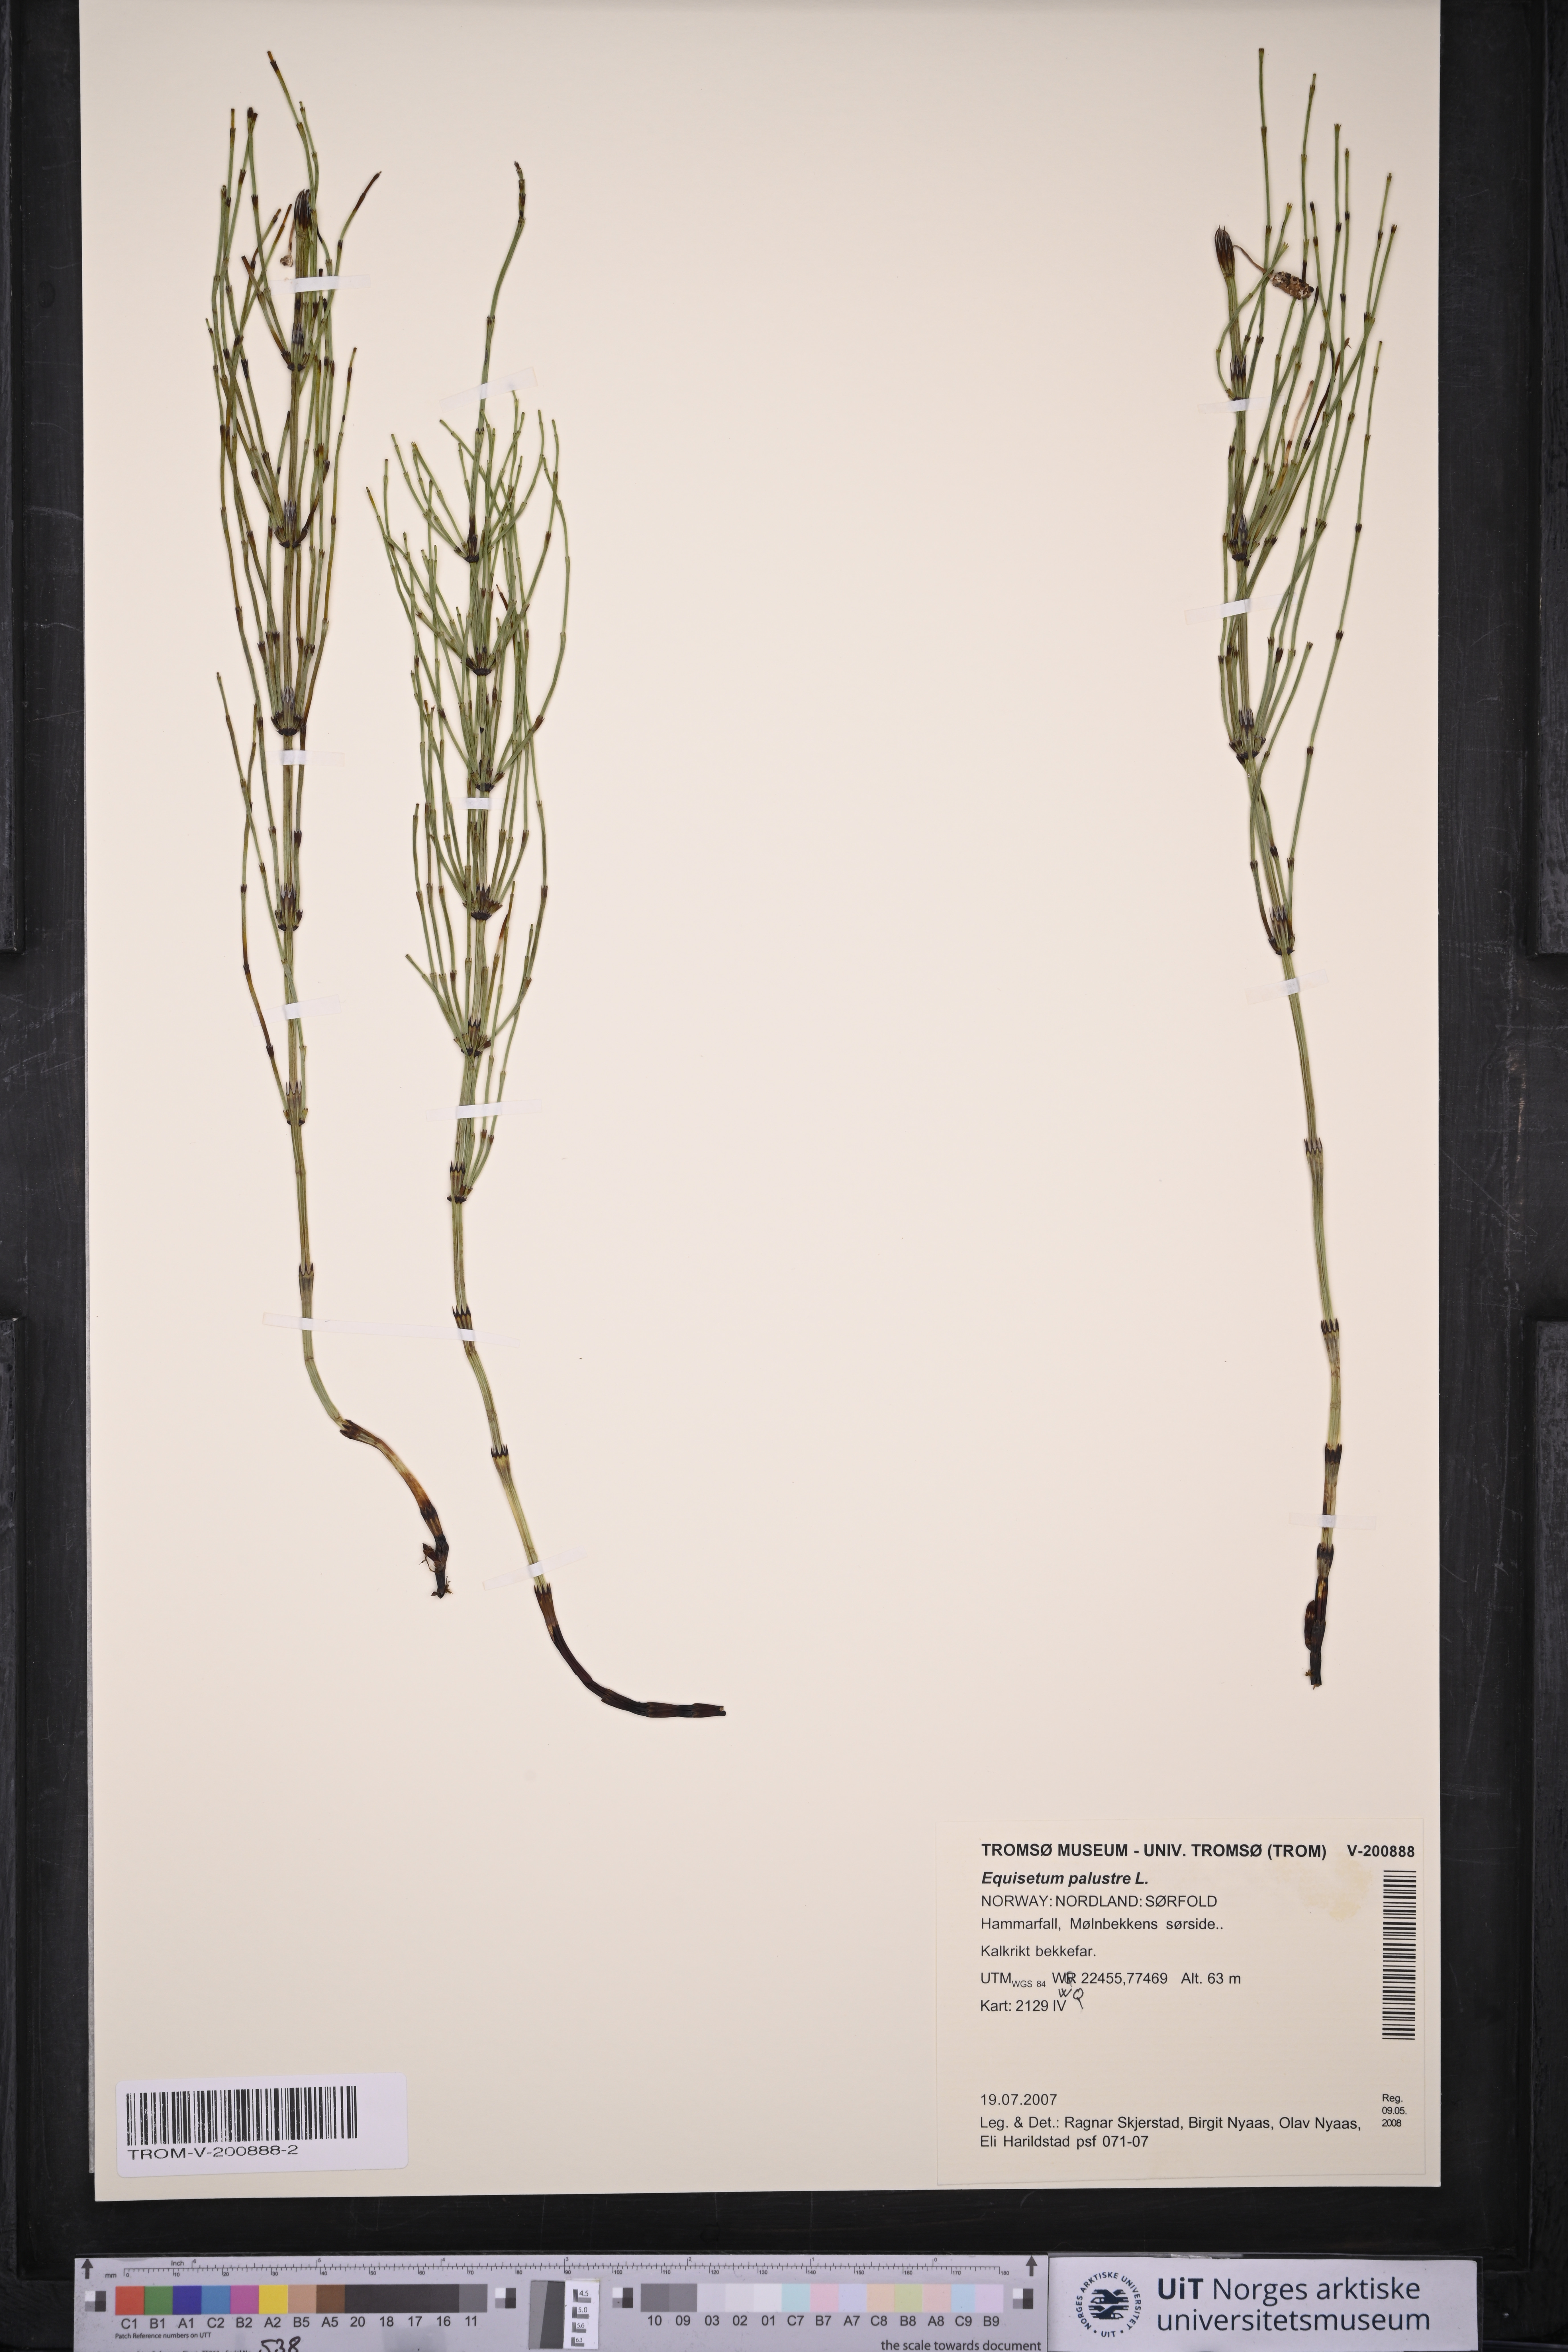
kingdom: Plantae
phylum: Tracheophyta
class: Polypodiopsida
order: Equisetales
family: Equisetaceae
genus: Equisetum
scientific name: Equisetum palustre
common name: Marsh horsetail
